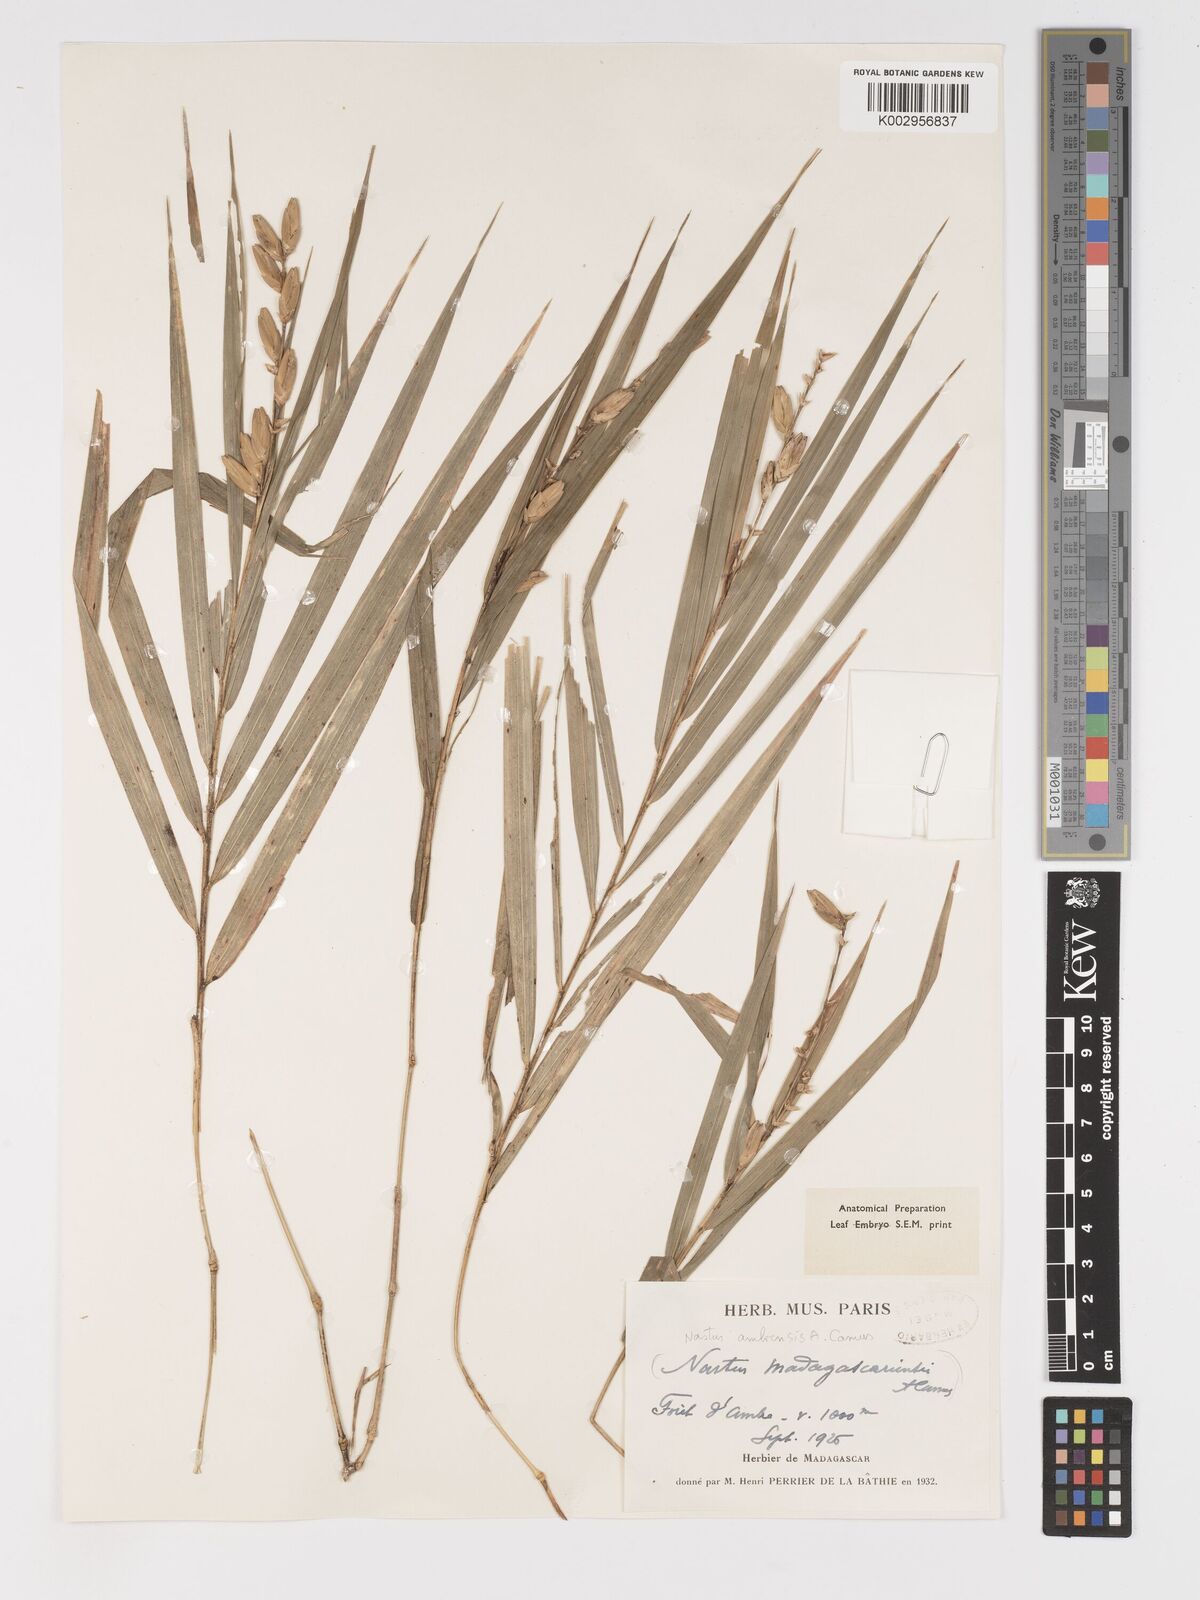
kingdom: Plantae
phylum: Tracheophyta
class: Liliopsida
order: Poales
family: Poaceae
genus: Nastus
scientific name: Nastus ambrensis
